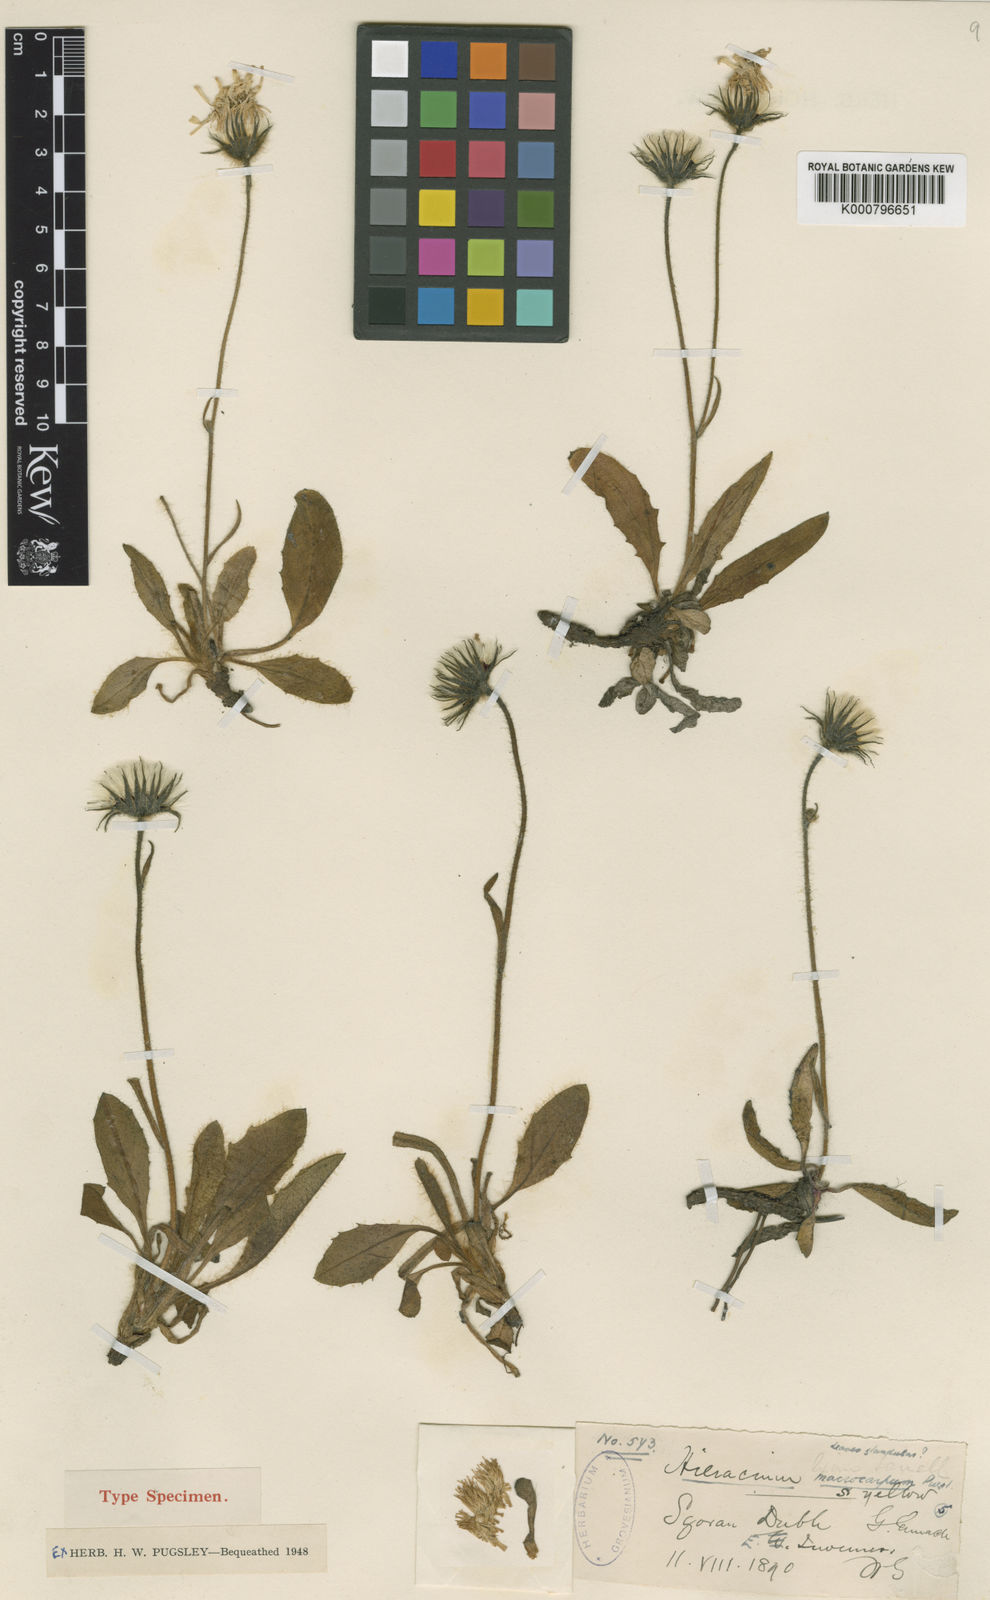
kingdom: Plantae
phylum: Tracheophyta
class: Magnoliopsida
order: Asterales
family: Asteraceae
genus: Hieracium
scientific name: Hieracium macrocarpum
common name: Large-fruited hawkweed
